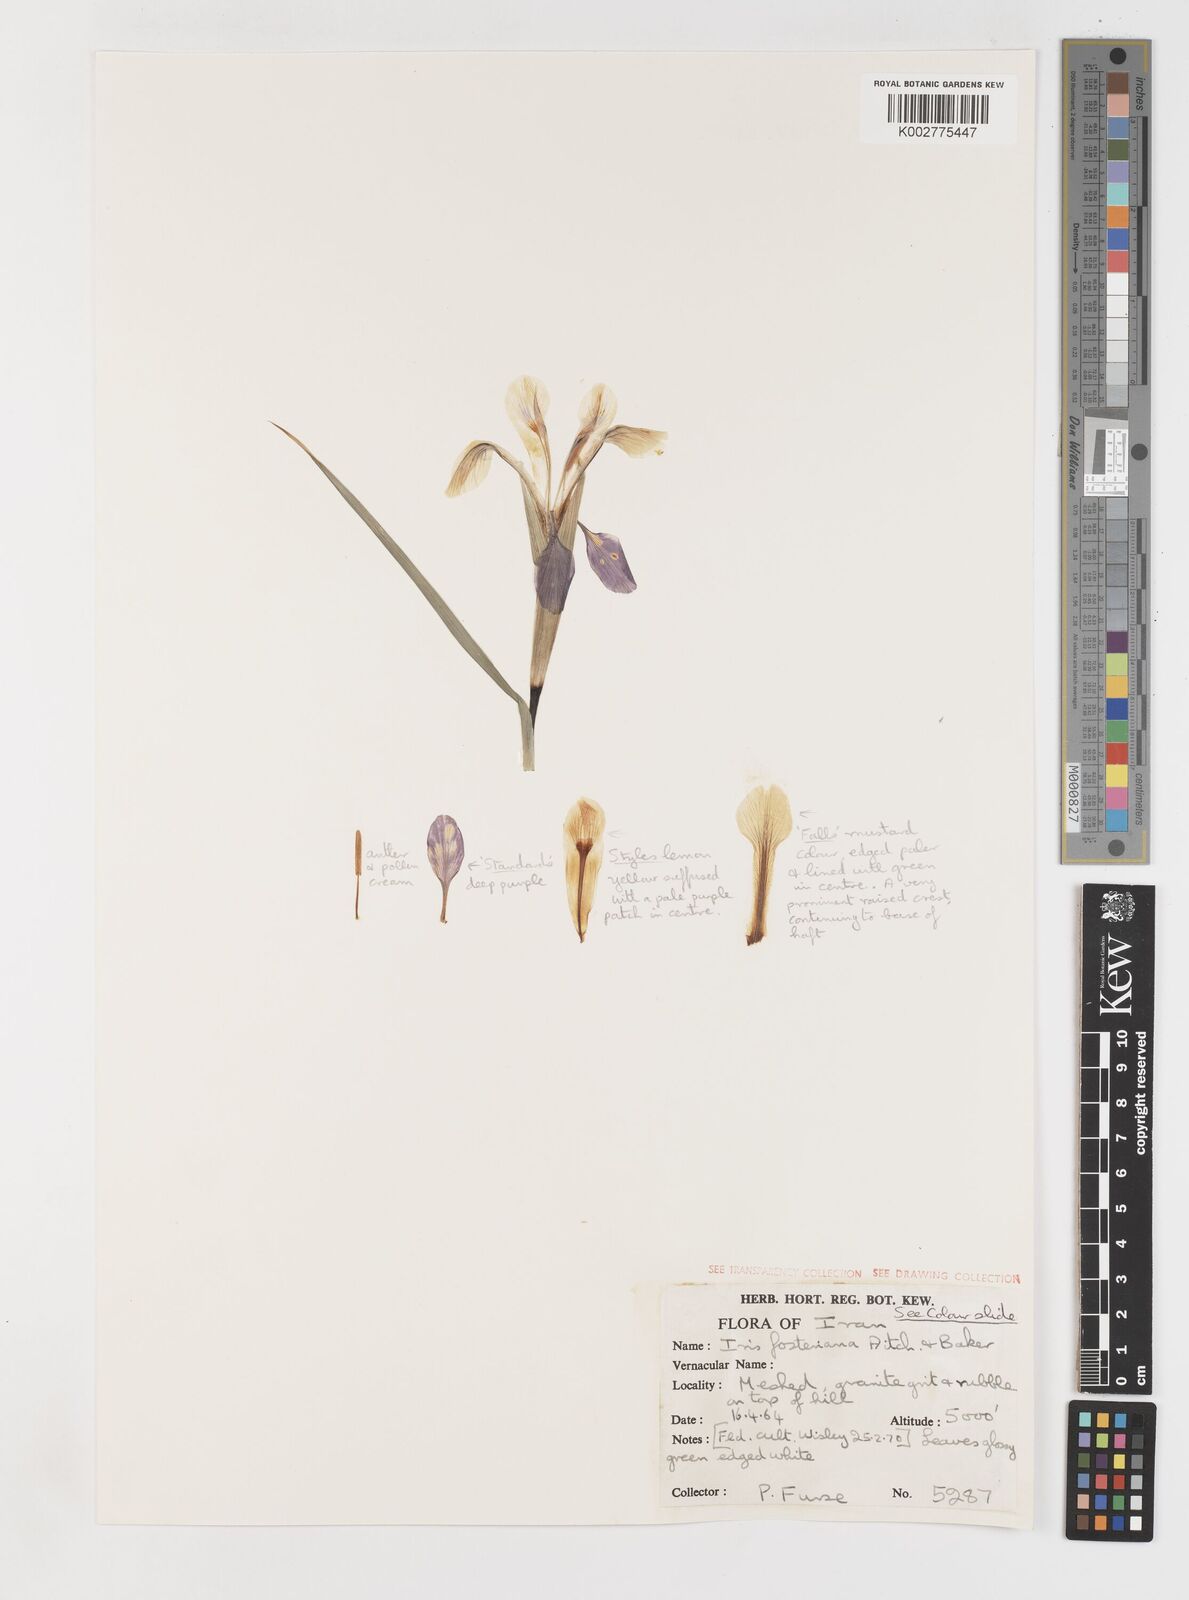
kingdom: Plantae
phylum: Tracheophyta
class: Liliopsida
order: Asparagales
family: Iridaceae
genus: Iris
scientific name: Iris fosteriana
